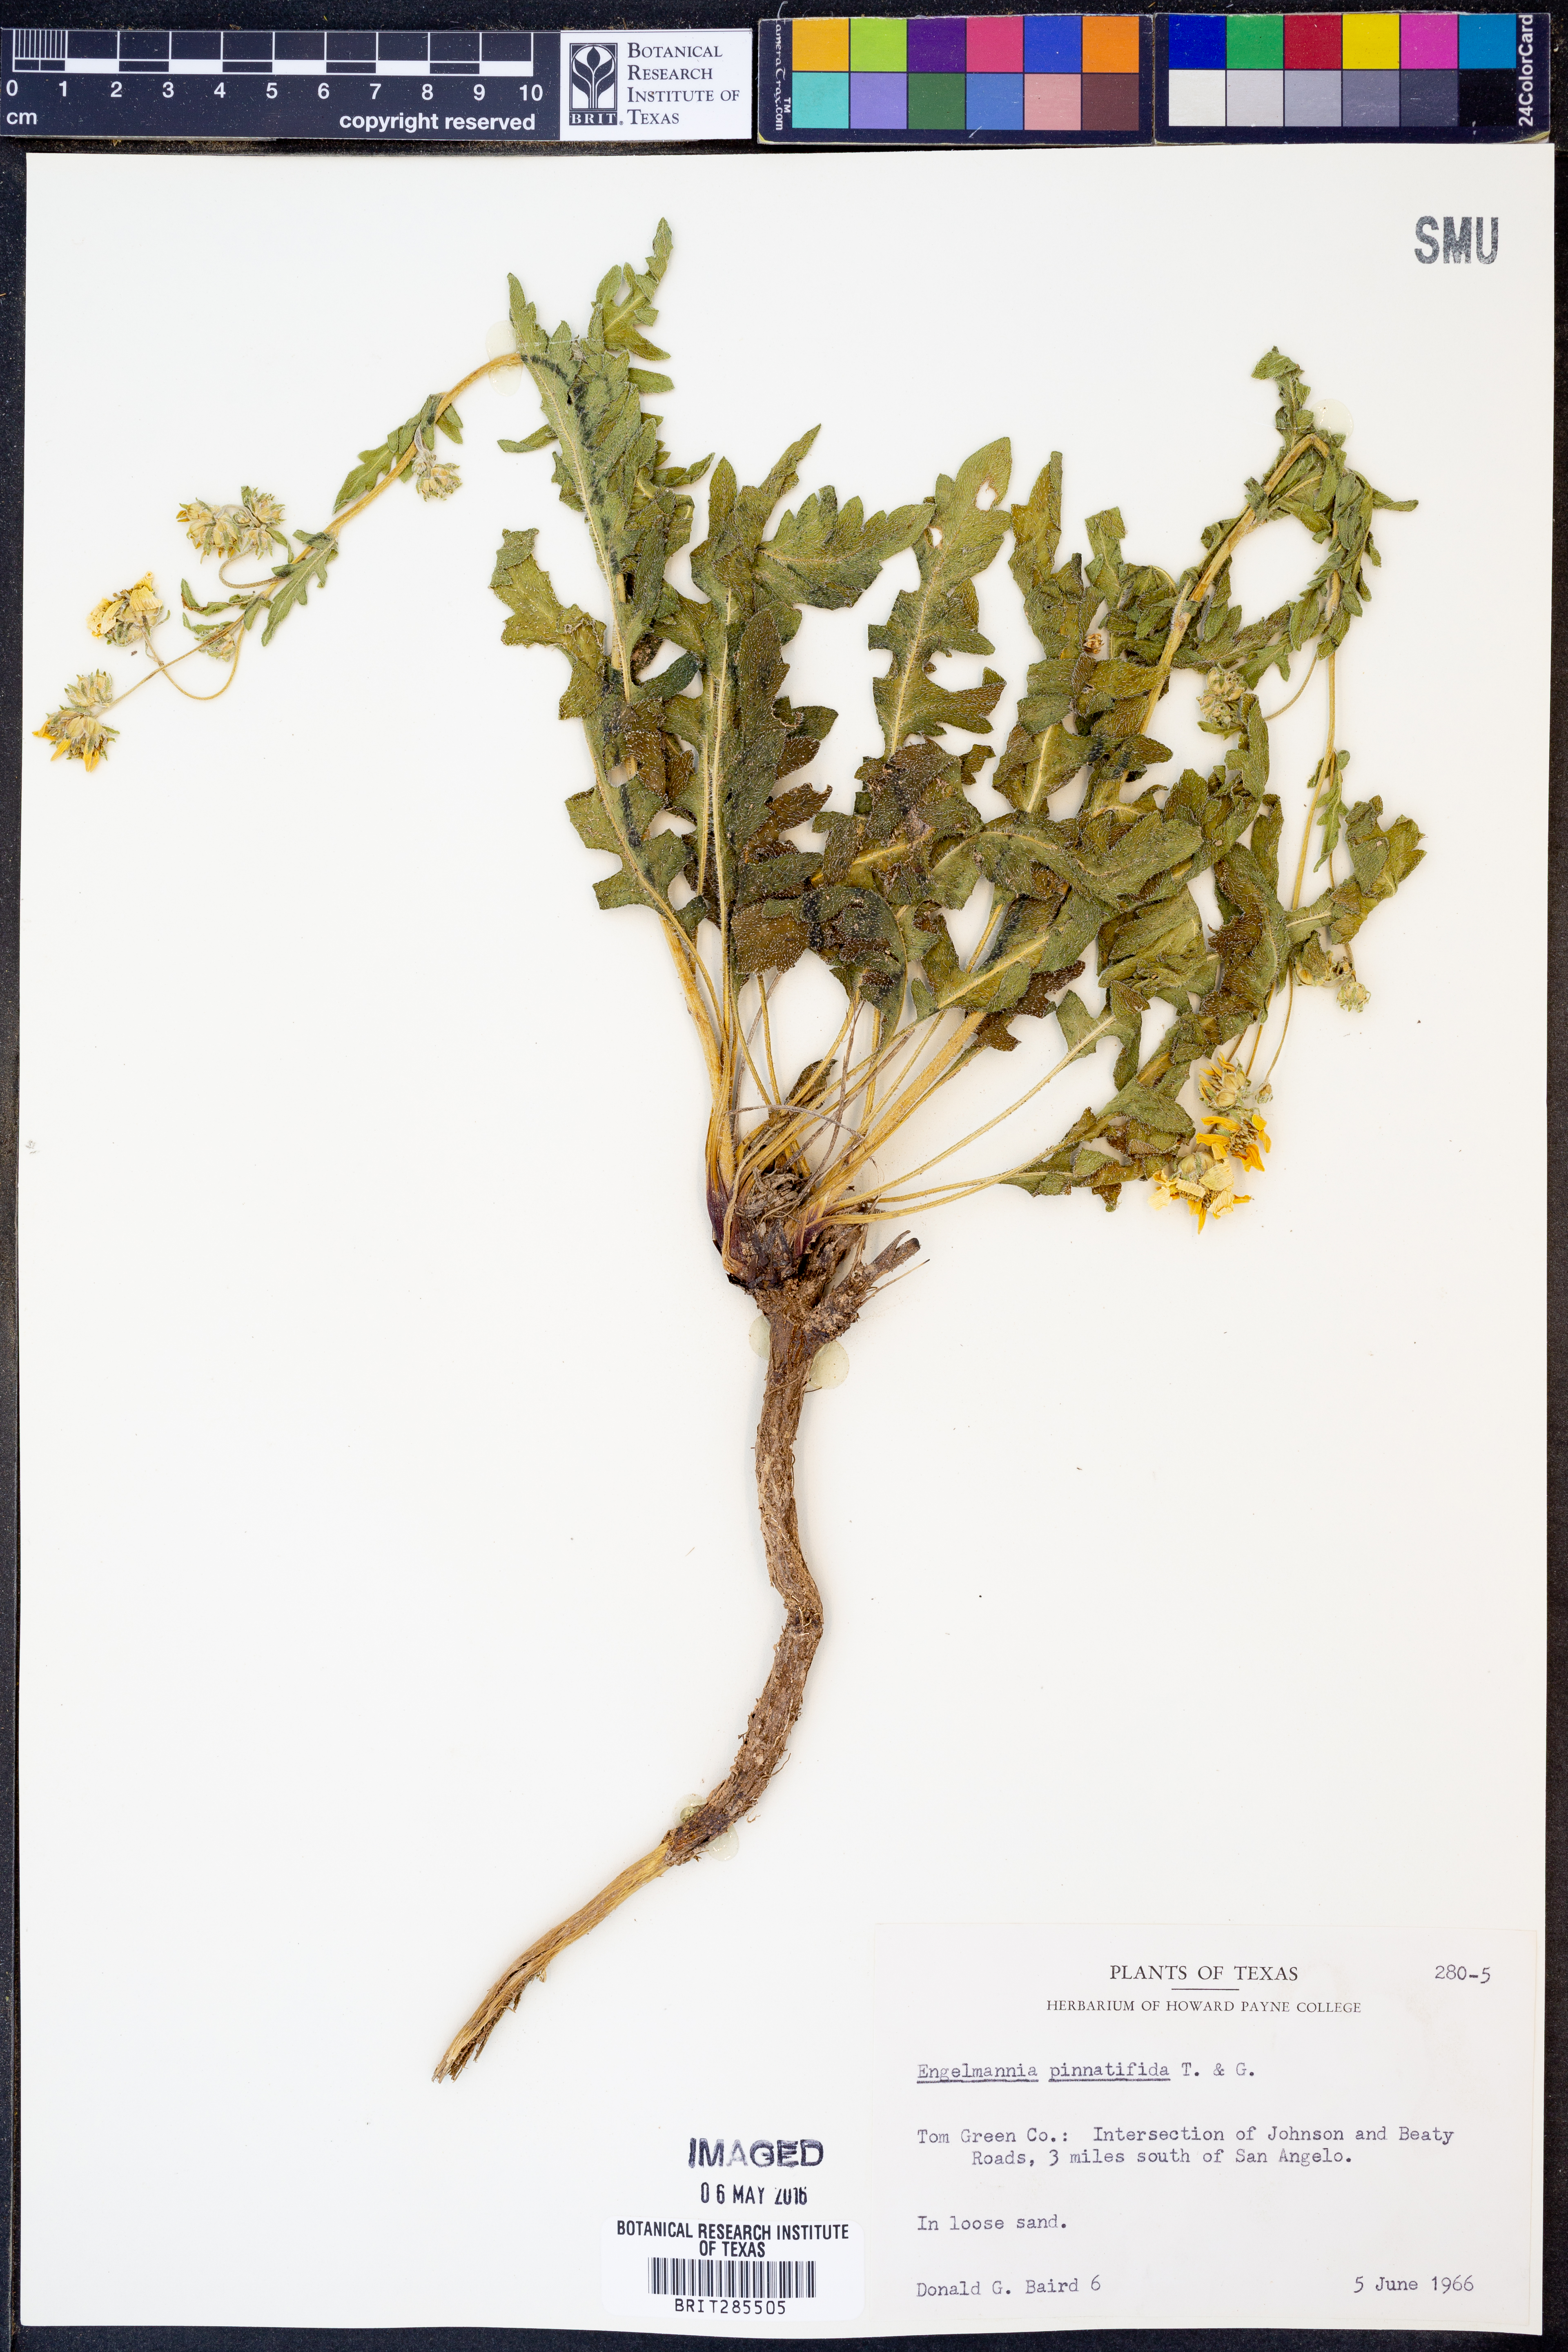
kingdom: Plantae
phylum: Tracheophyta
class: Magnoliopsida
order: Asterales
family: Asteraceae
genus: Engelmannia
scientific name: Engelmannia peristenia
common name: Engelmann's daisy
